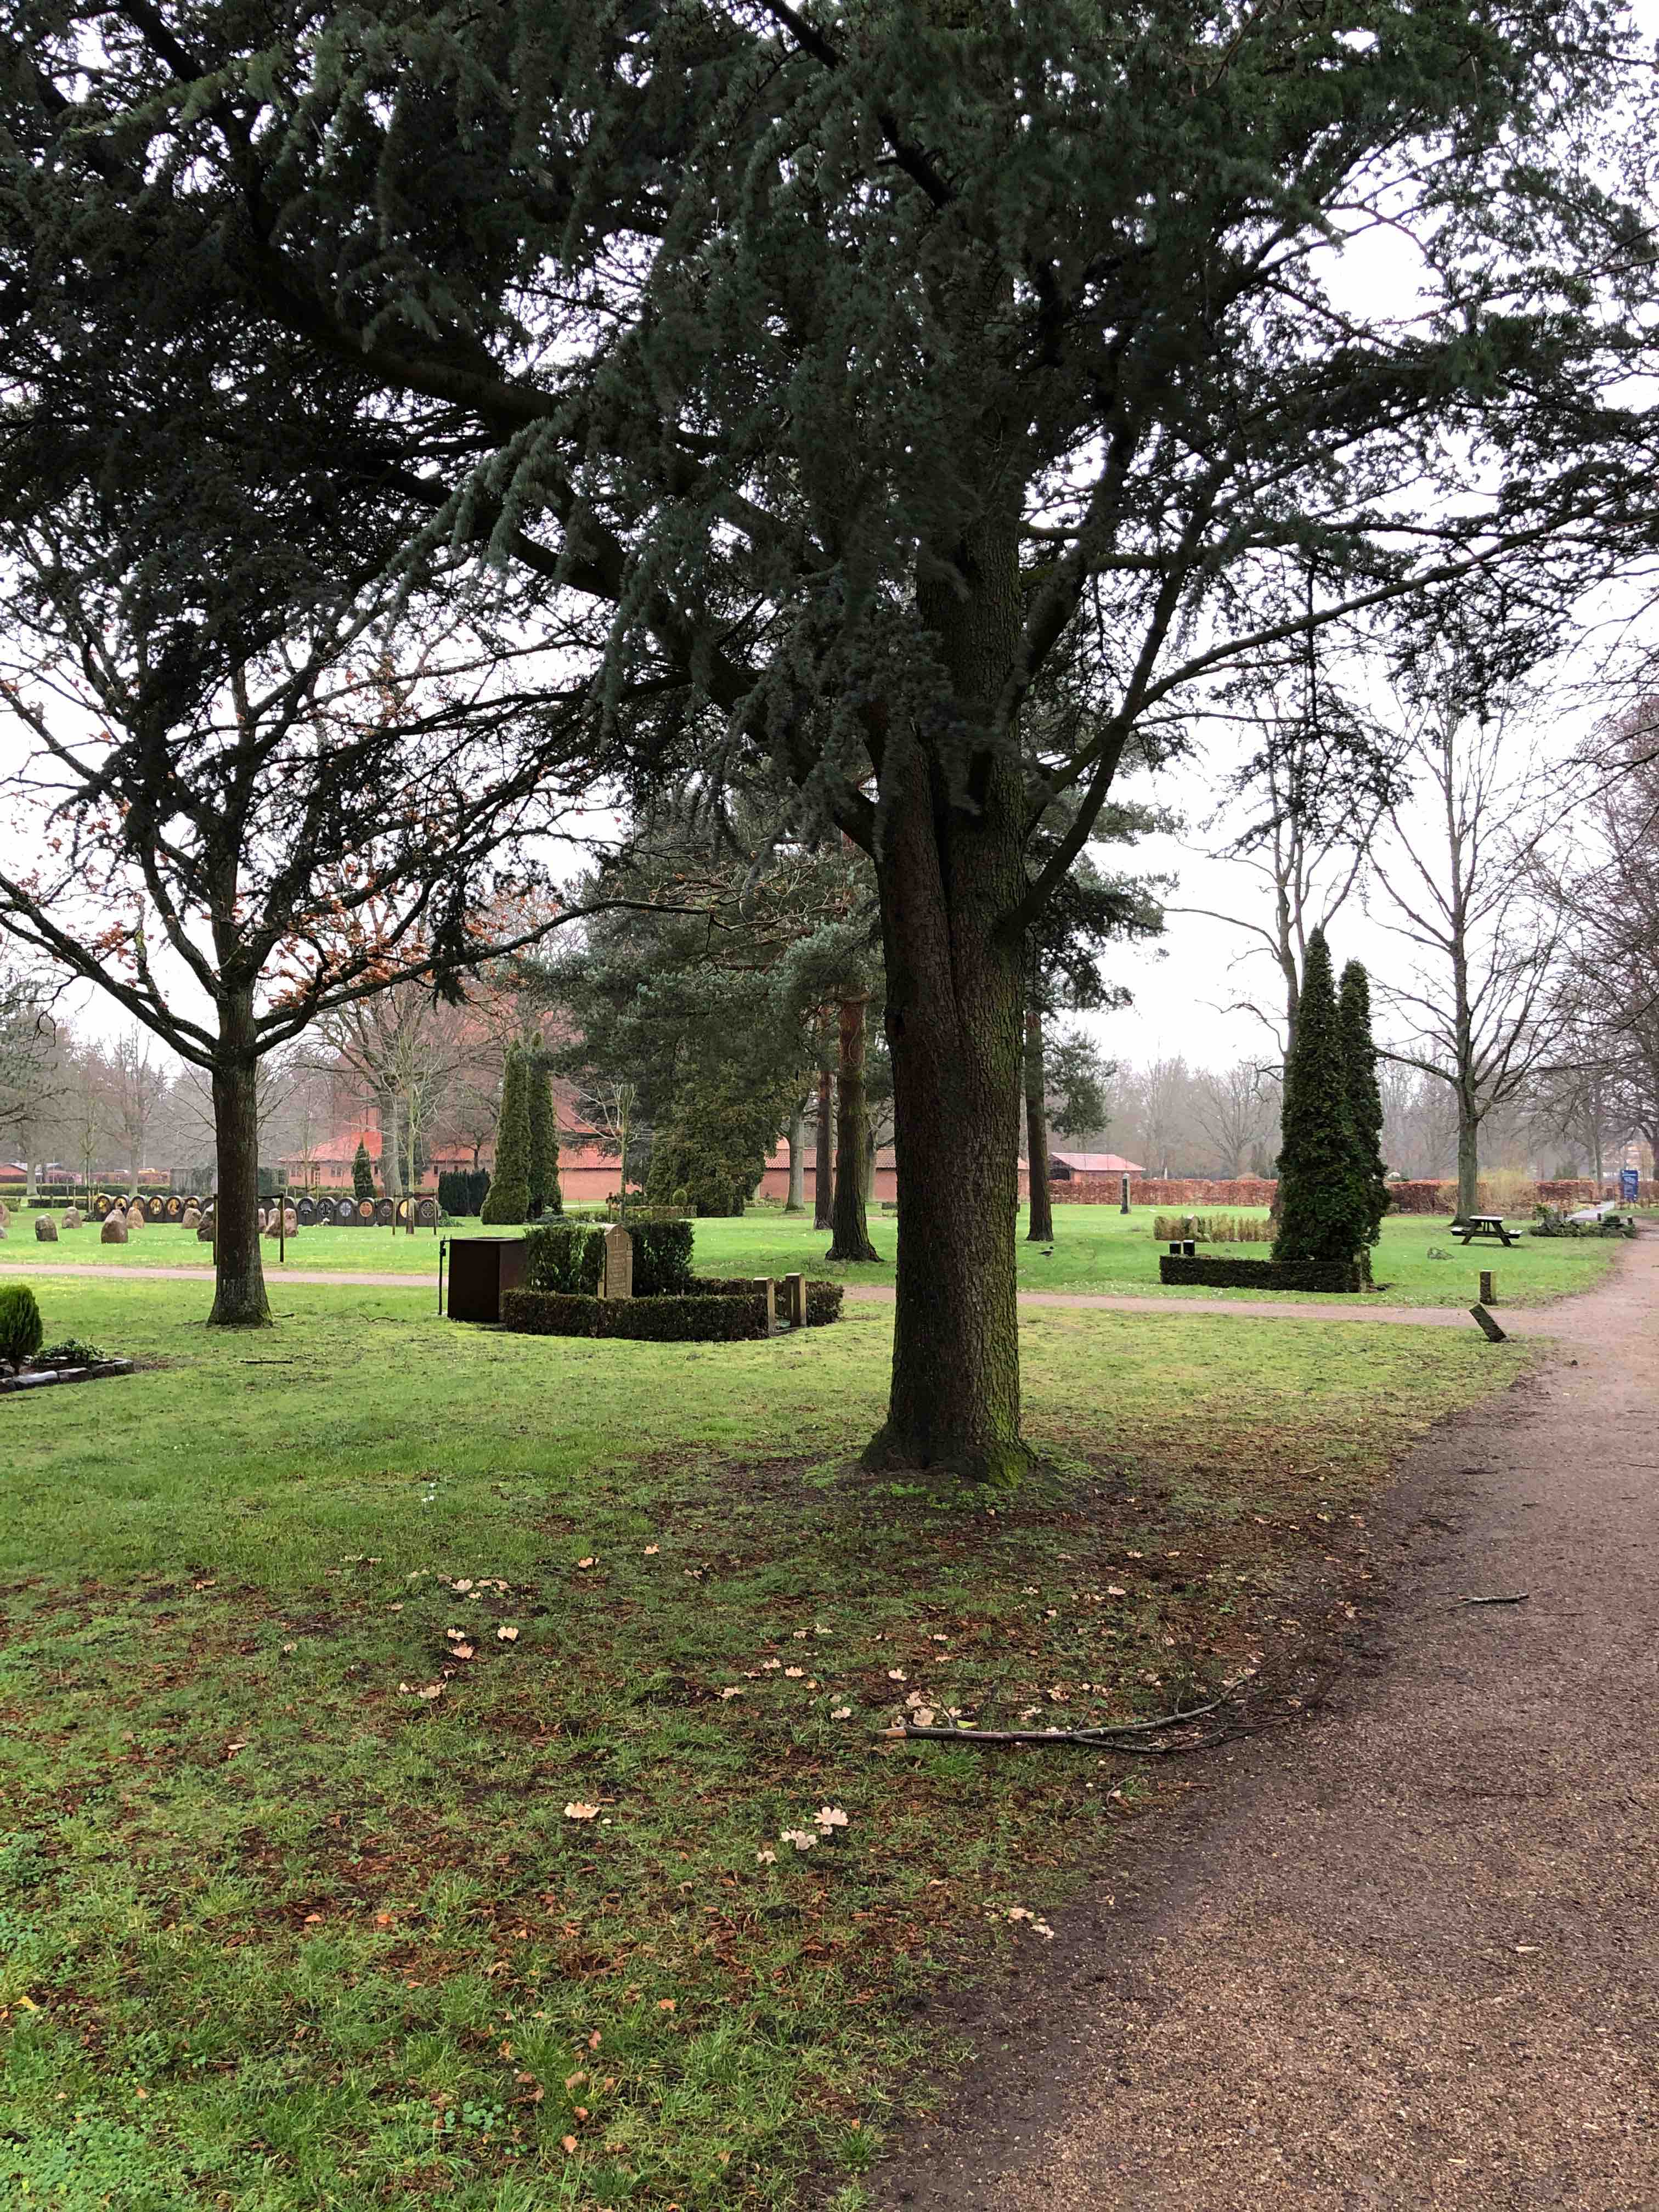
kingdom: Fungi
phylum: Ascomycota
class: Pezizomycetes
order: Pezizales
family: Pyronemataceae
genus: Geopora
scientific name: Geopora sumneriana
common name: vår-jordbæger
